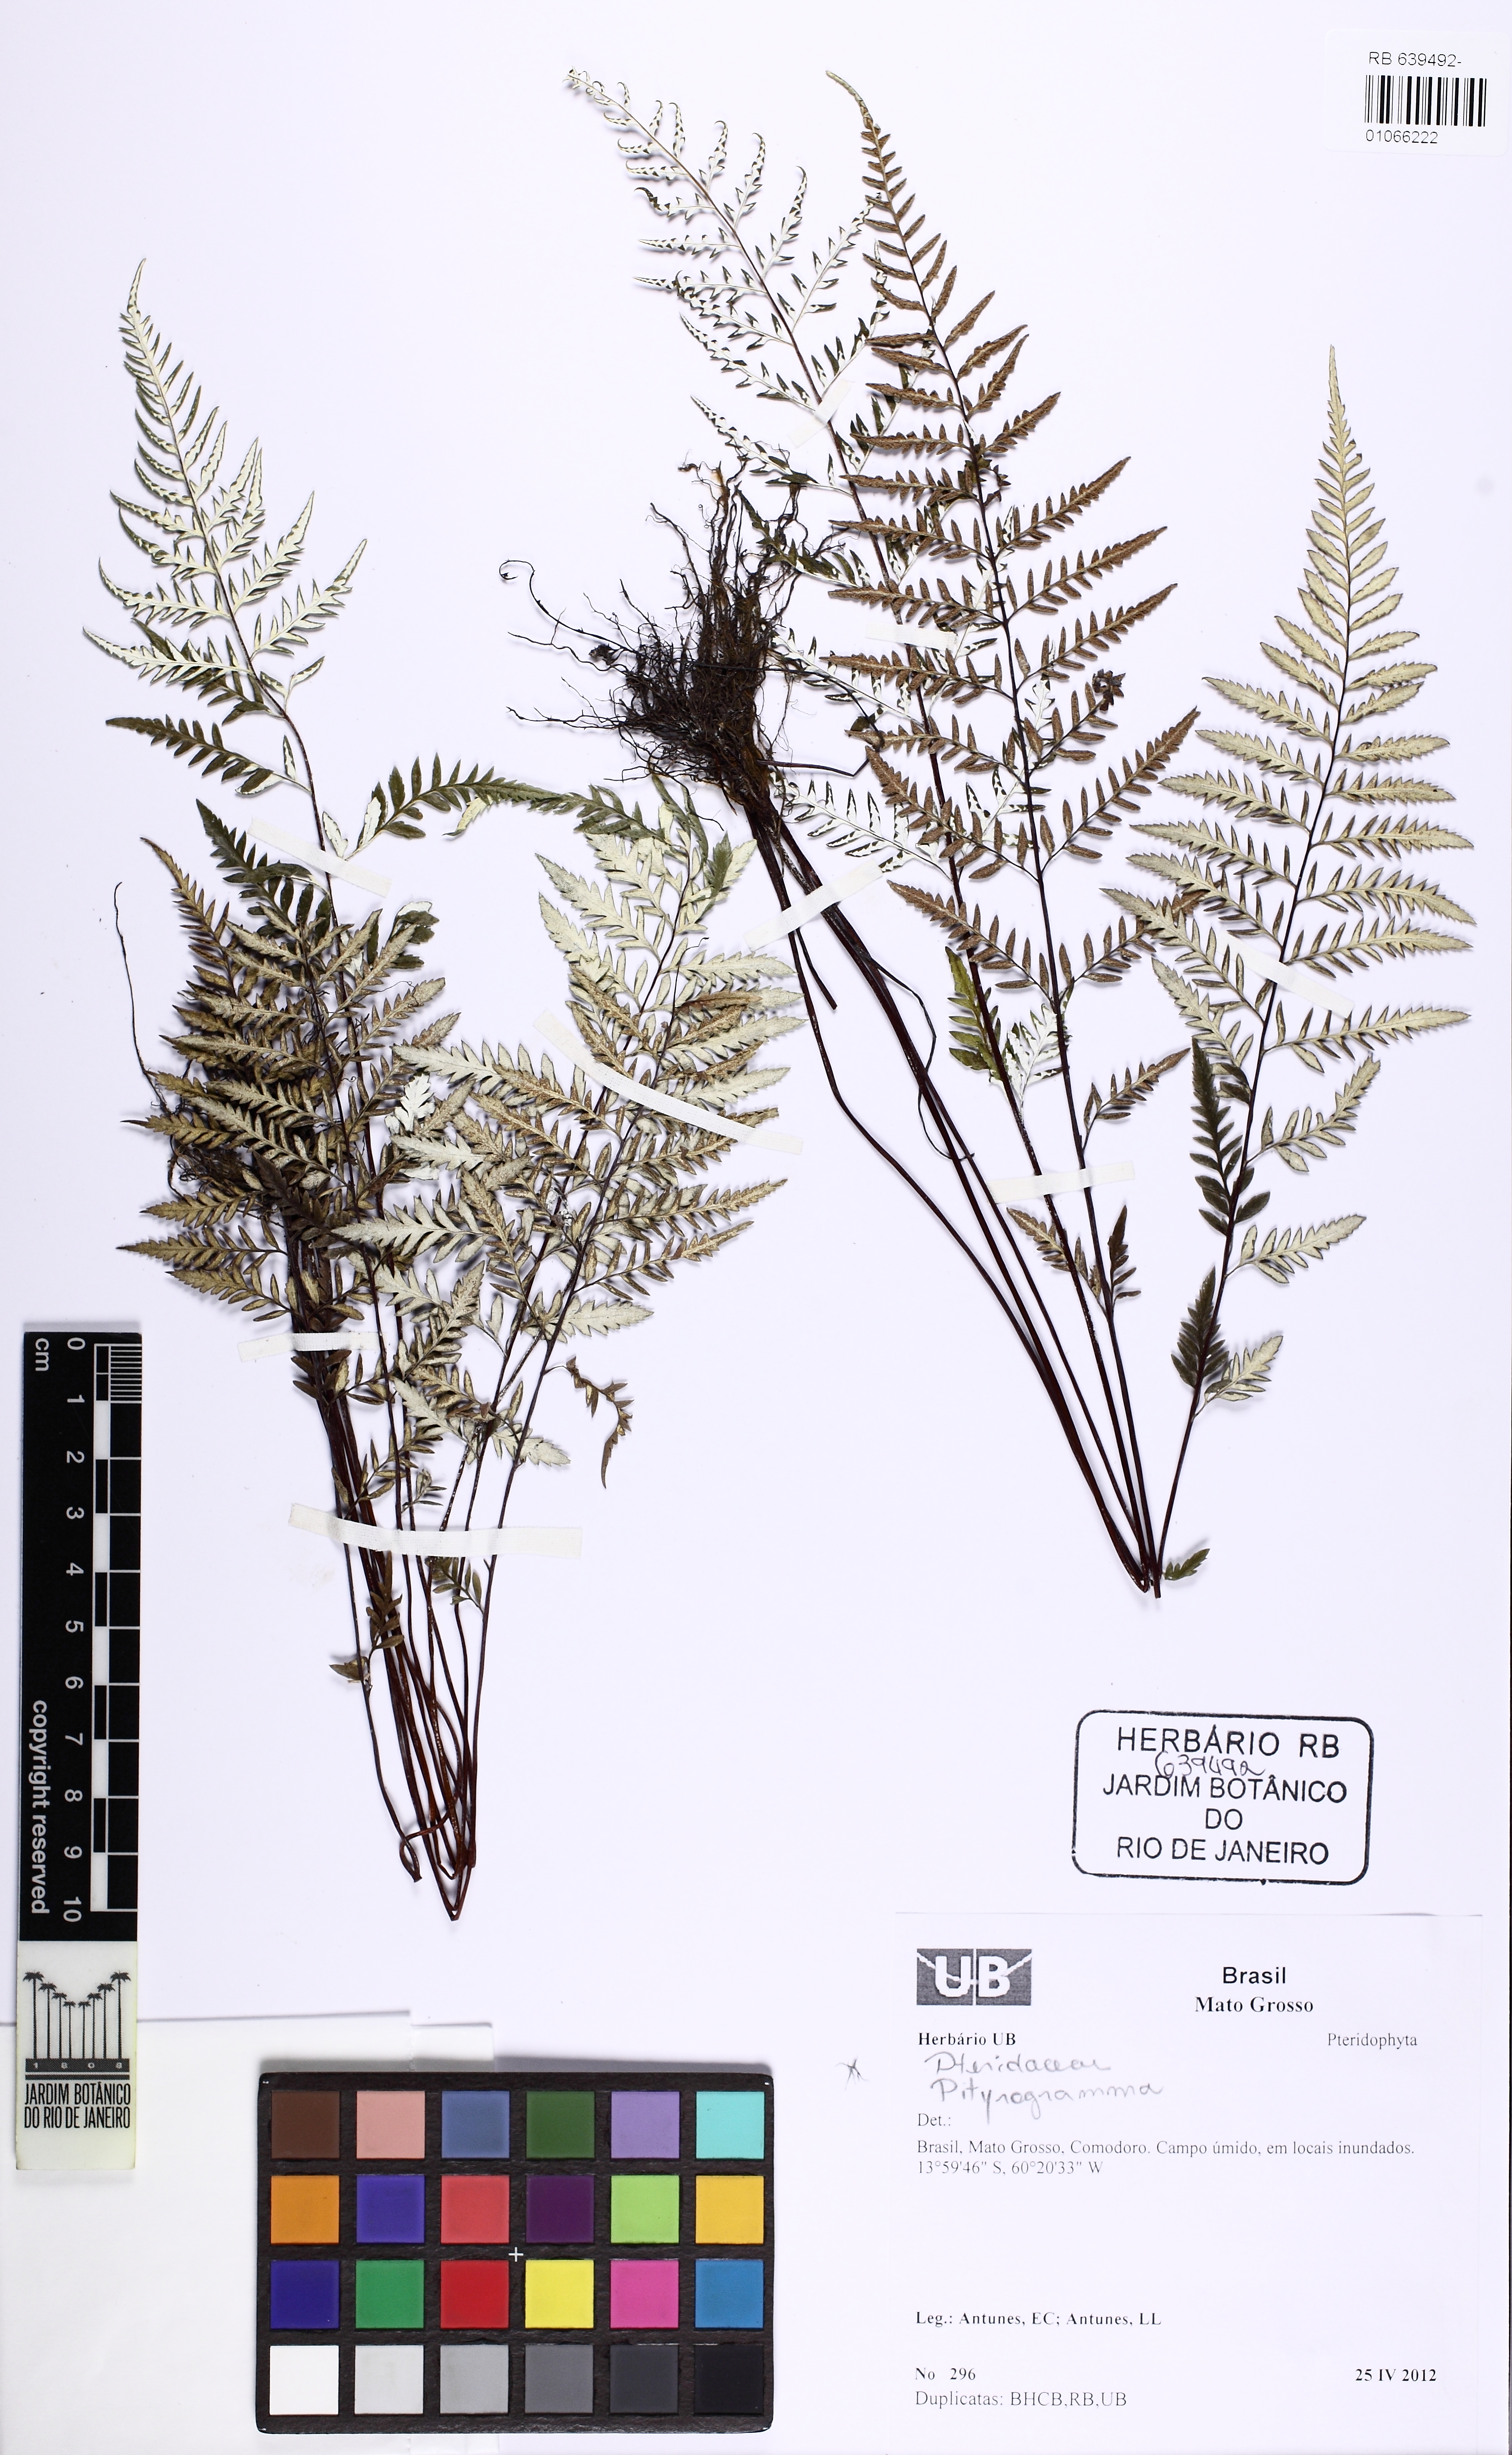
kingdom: Plantae
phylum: Tracheophyta
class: Polypodiopsida
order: Polypodiales
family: Pteridaceae
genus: Pityrogramma
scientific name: Pityrogramma
